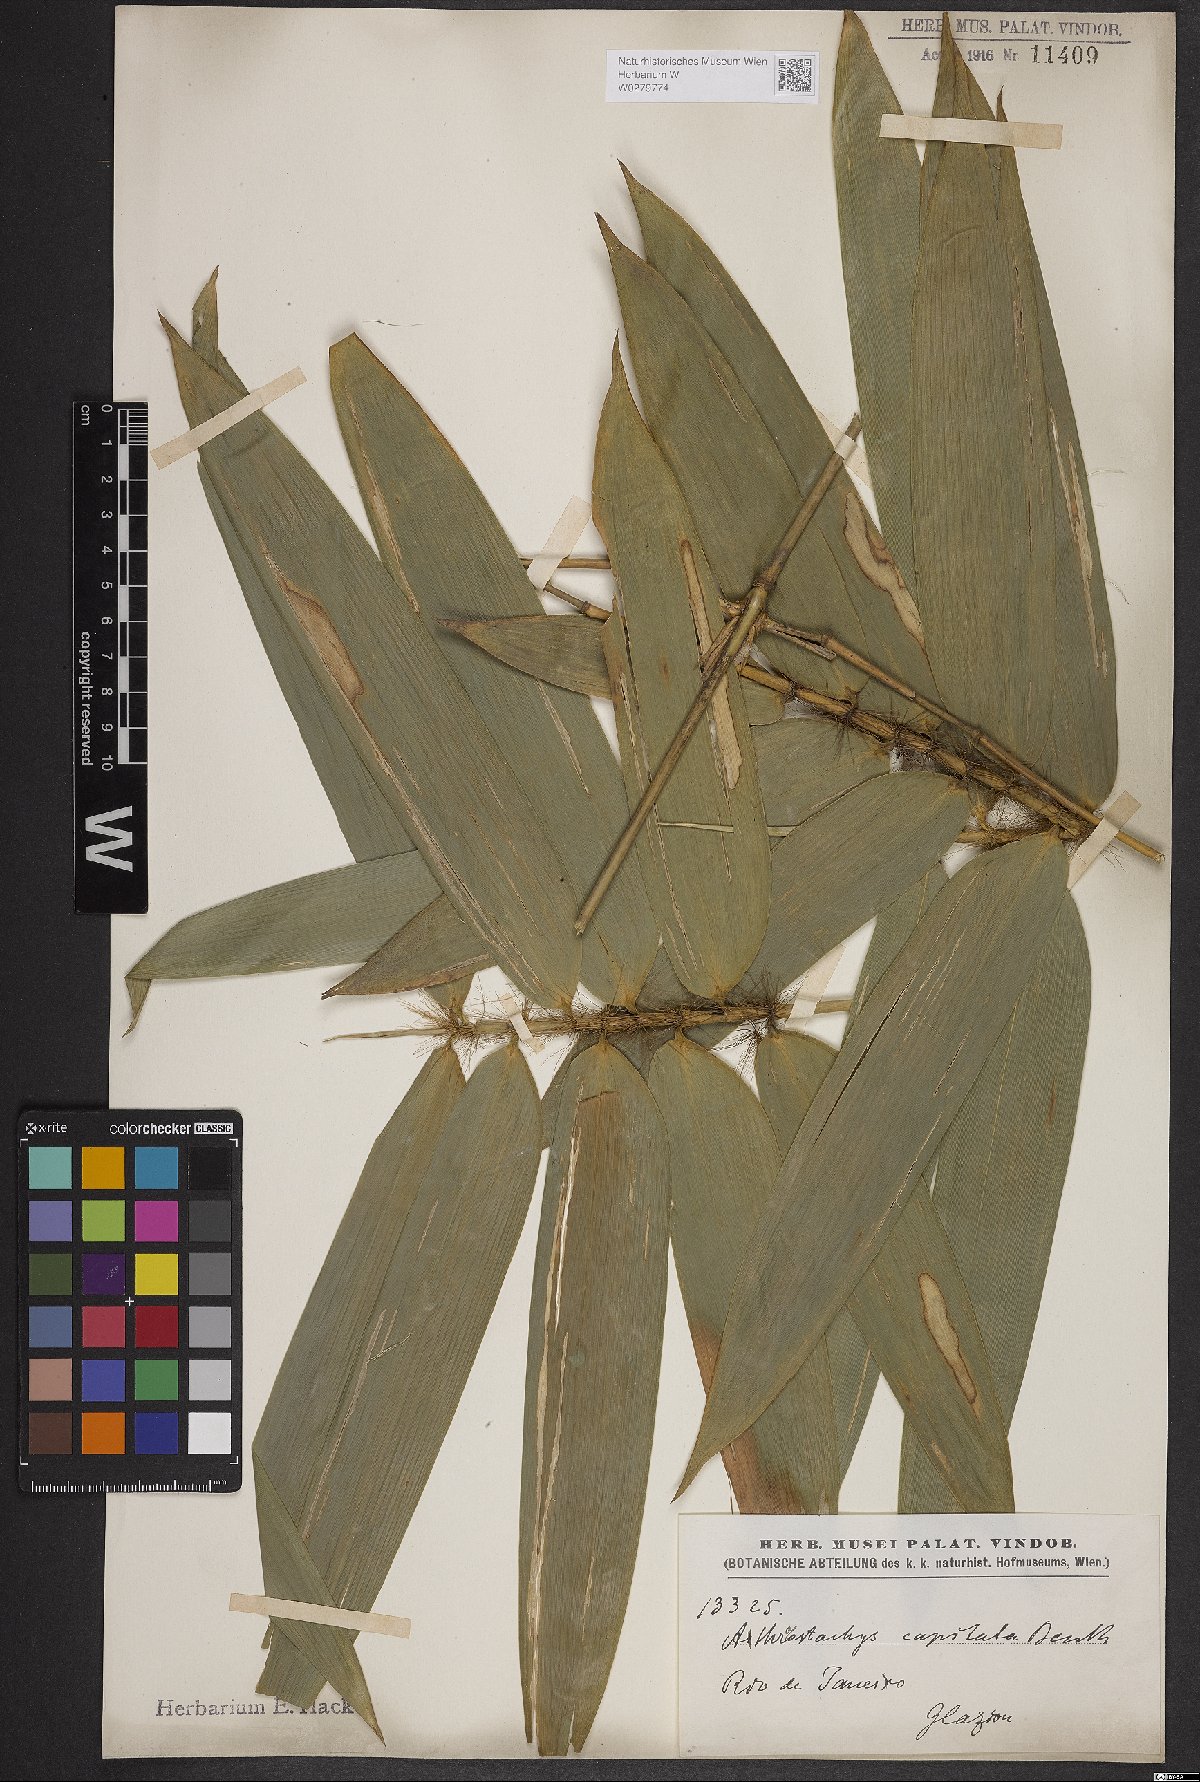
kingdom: Plantae
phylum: Tracheophyta
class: Liliopsida
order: Poales
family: Poaceae
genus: Athroostachys
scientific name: Athroostachys capitata
